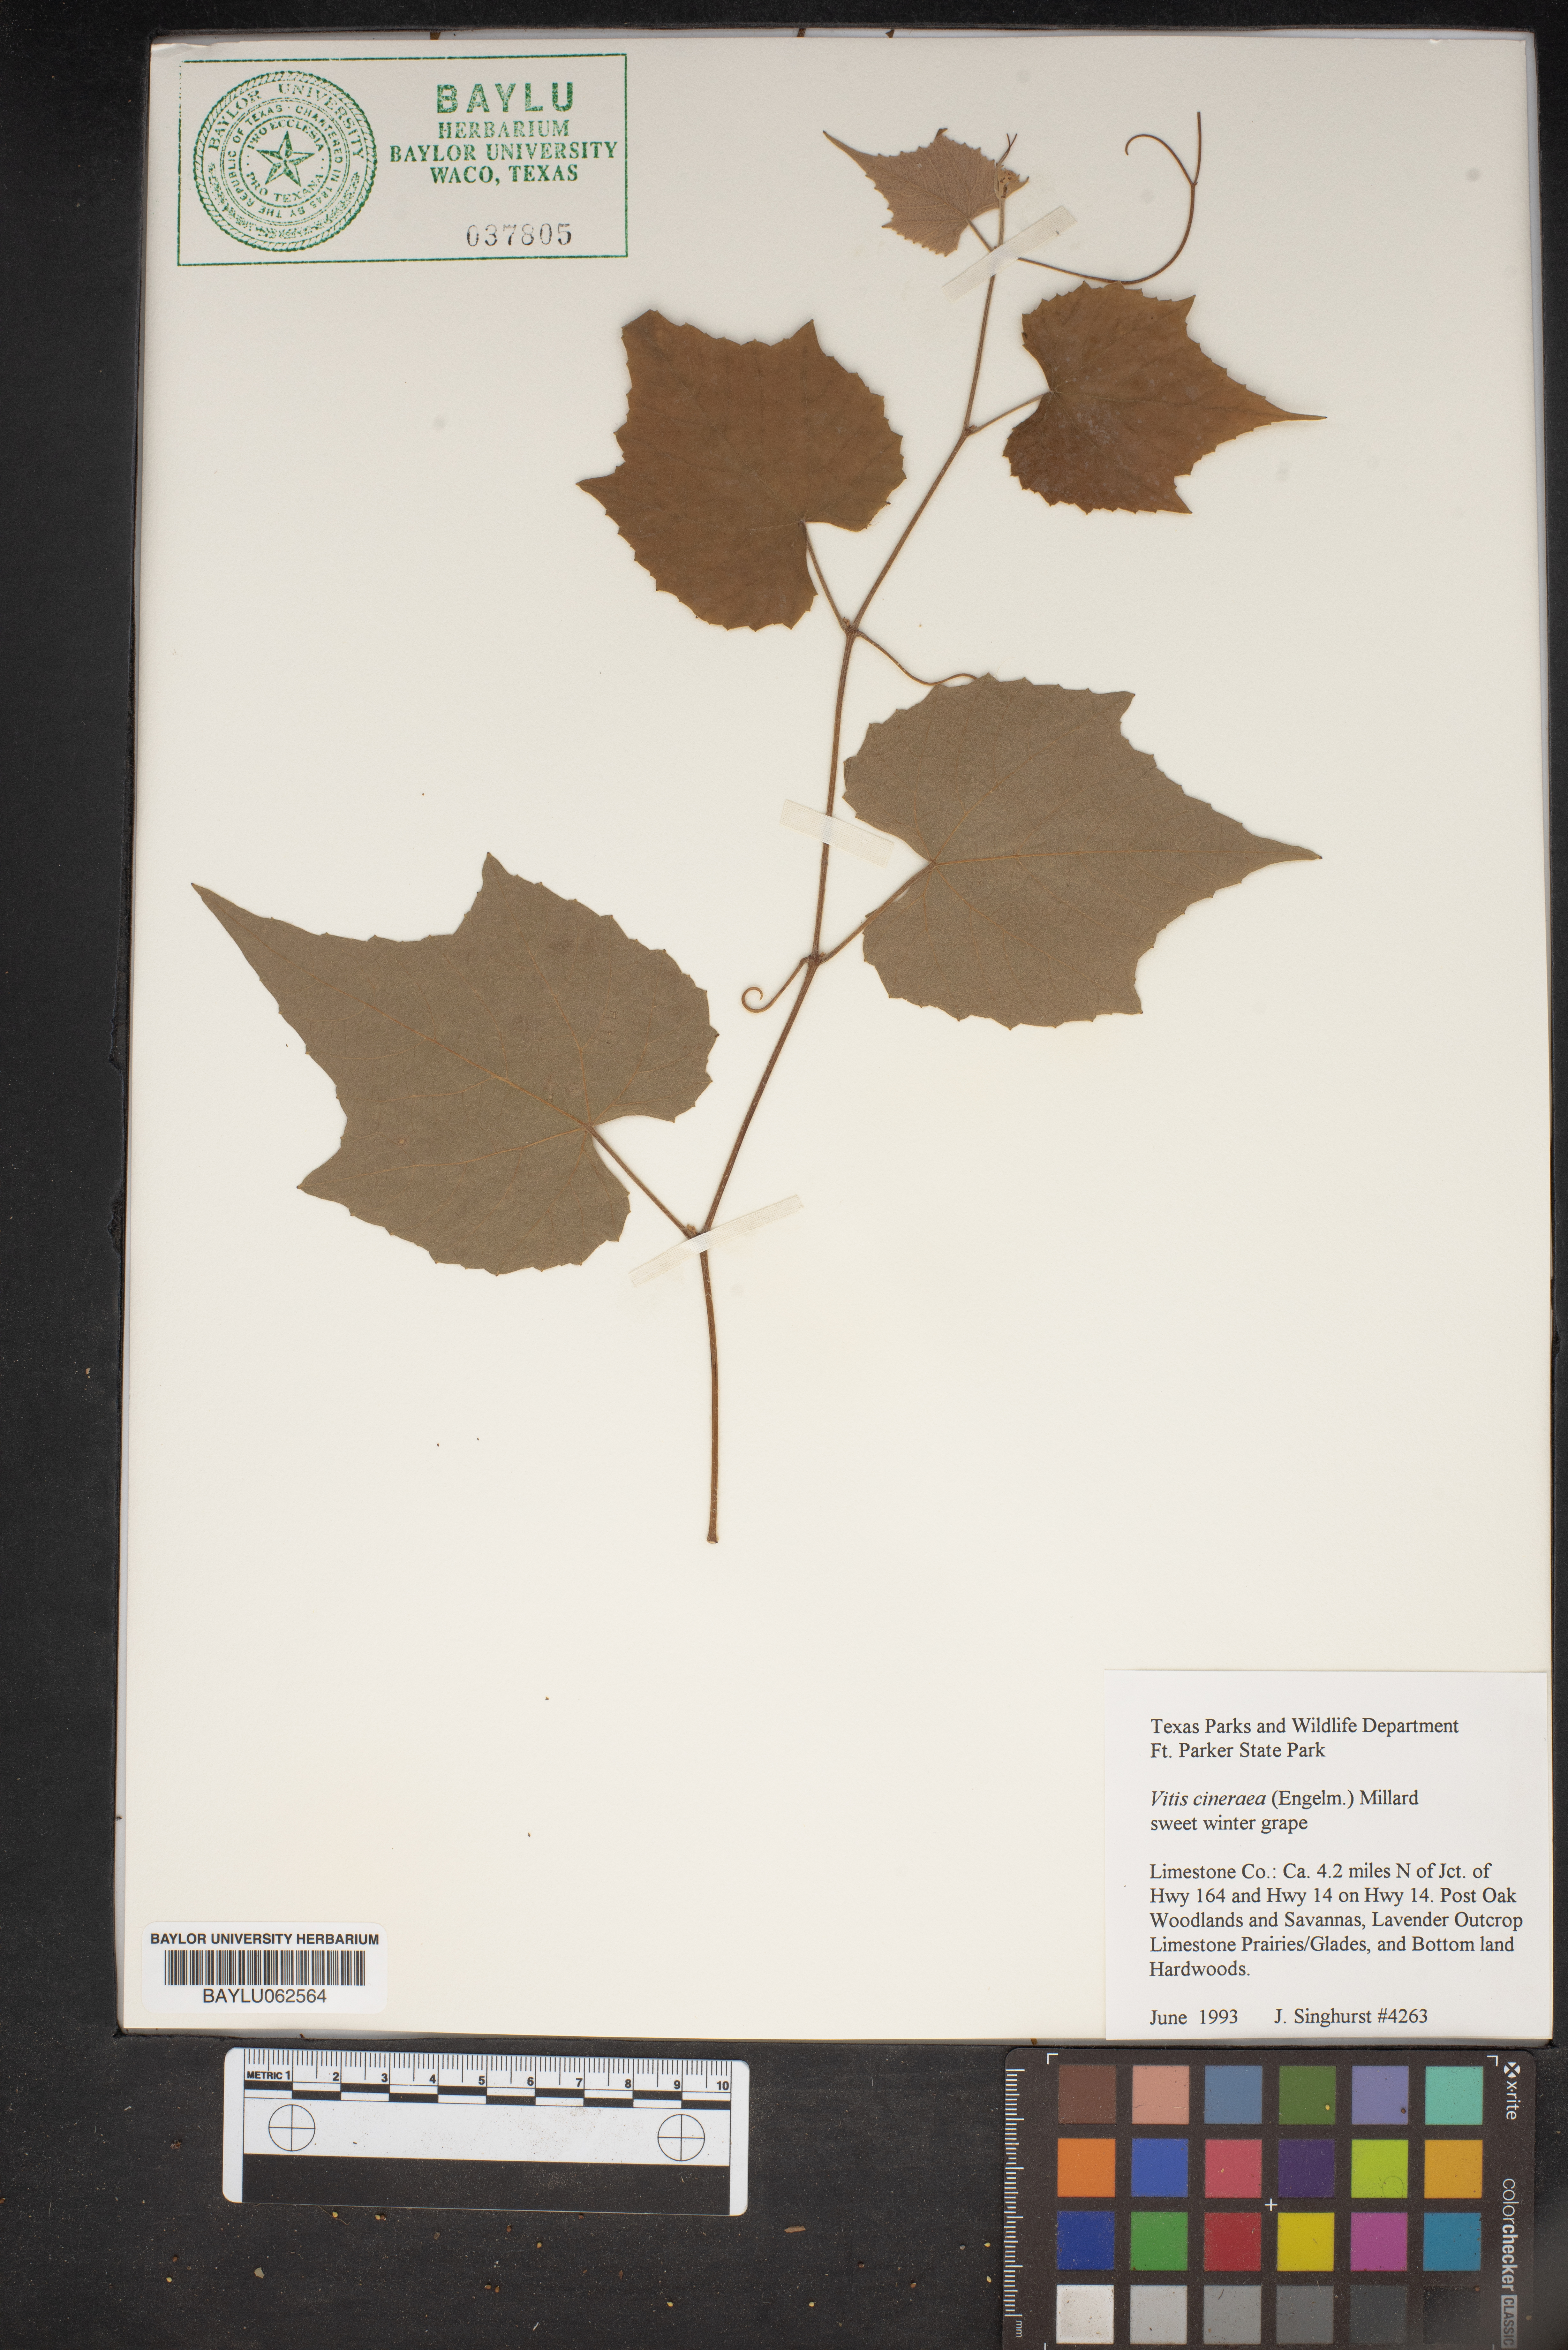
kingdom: Plantae
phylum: Tracheophyta
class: Magnoliopsida
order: Vitales
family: Vitaceae
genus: Vitis
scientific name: Vitis cinerea
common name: Ashy grape
